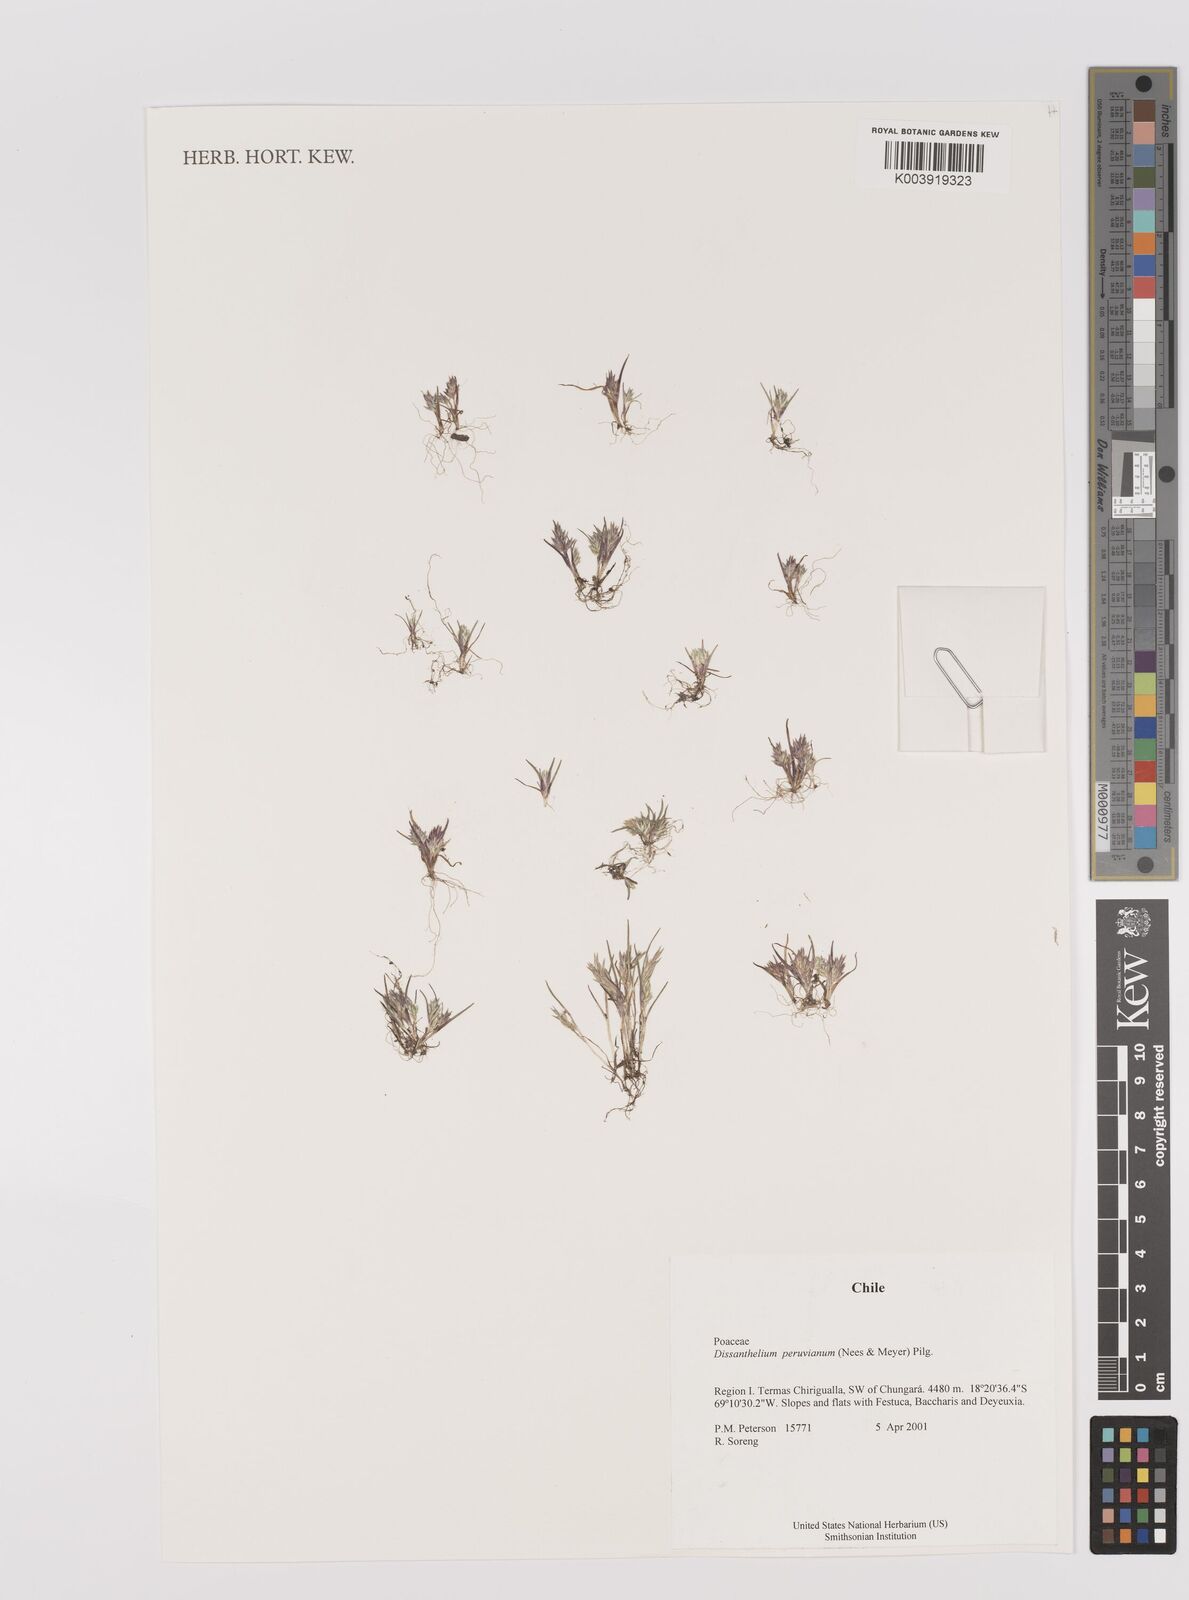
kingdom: Plantae
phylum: Tracheophyta
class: Liliopsida
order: Poales
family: Poaceae
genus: Poa
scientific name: Poa serpana
